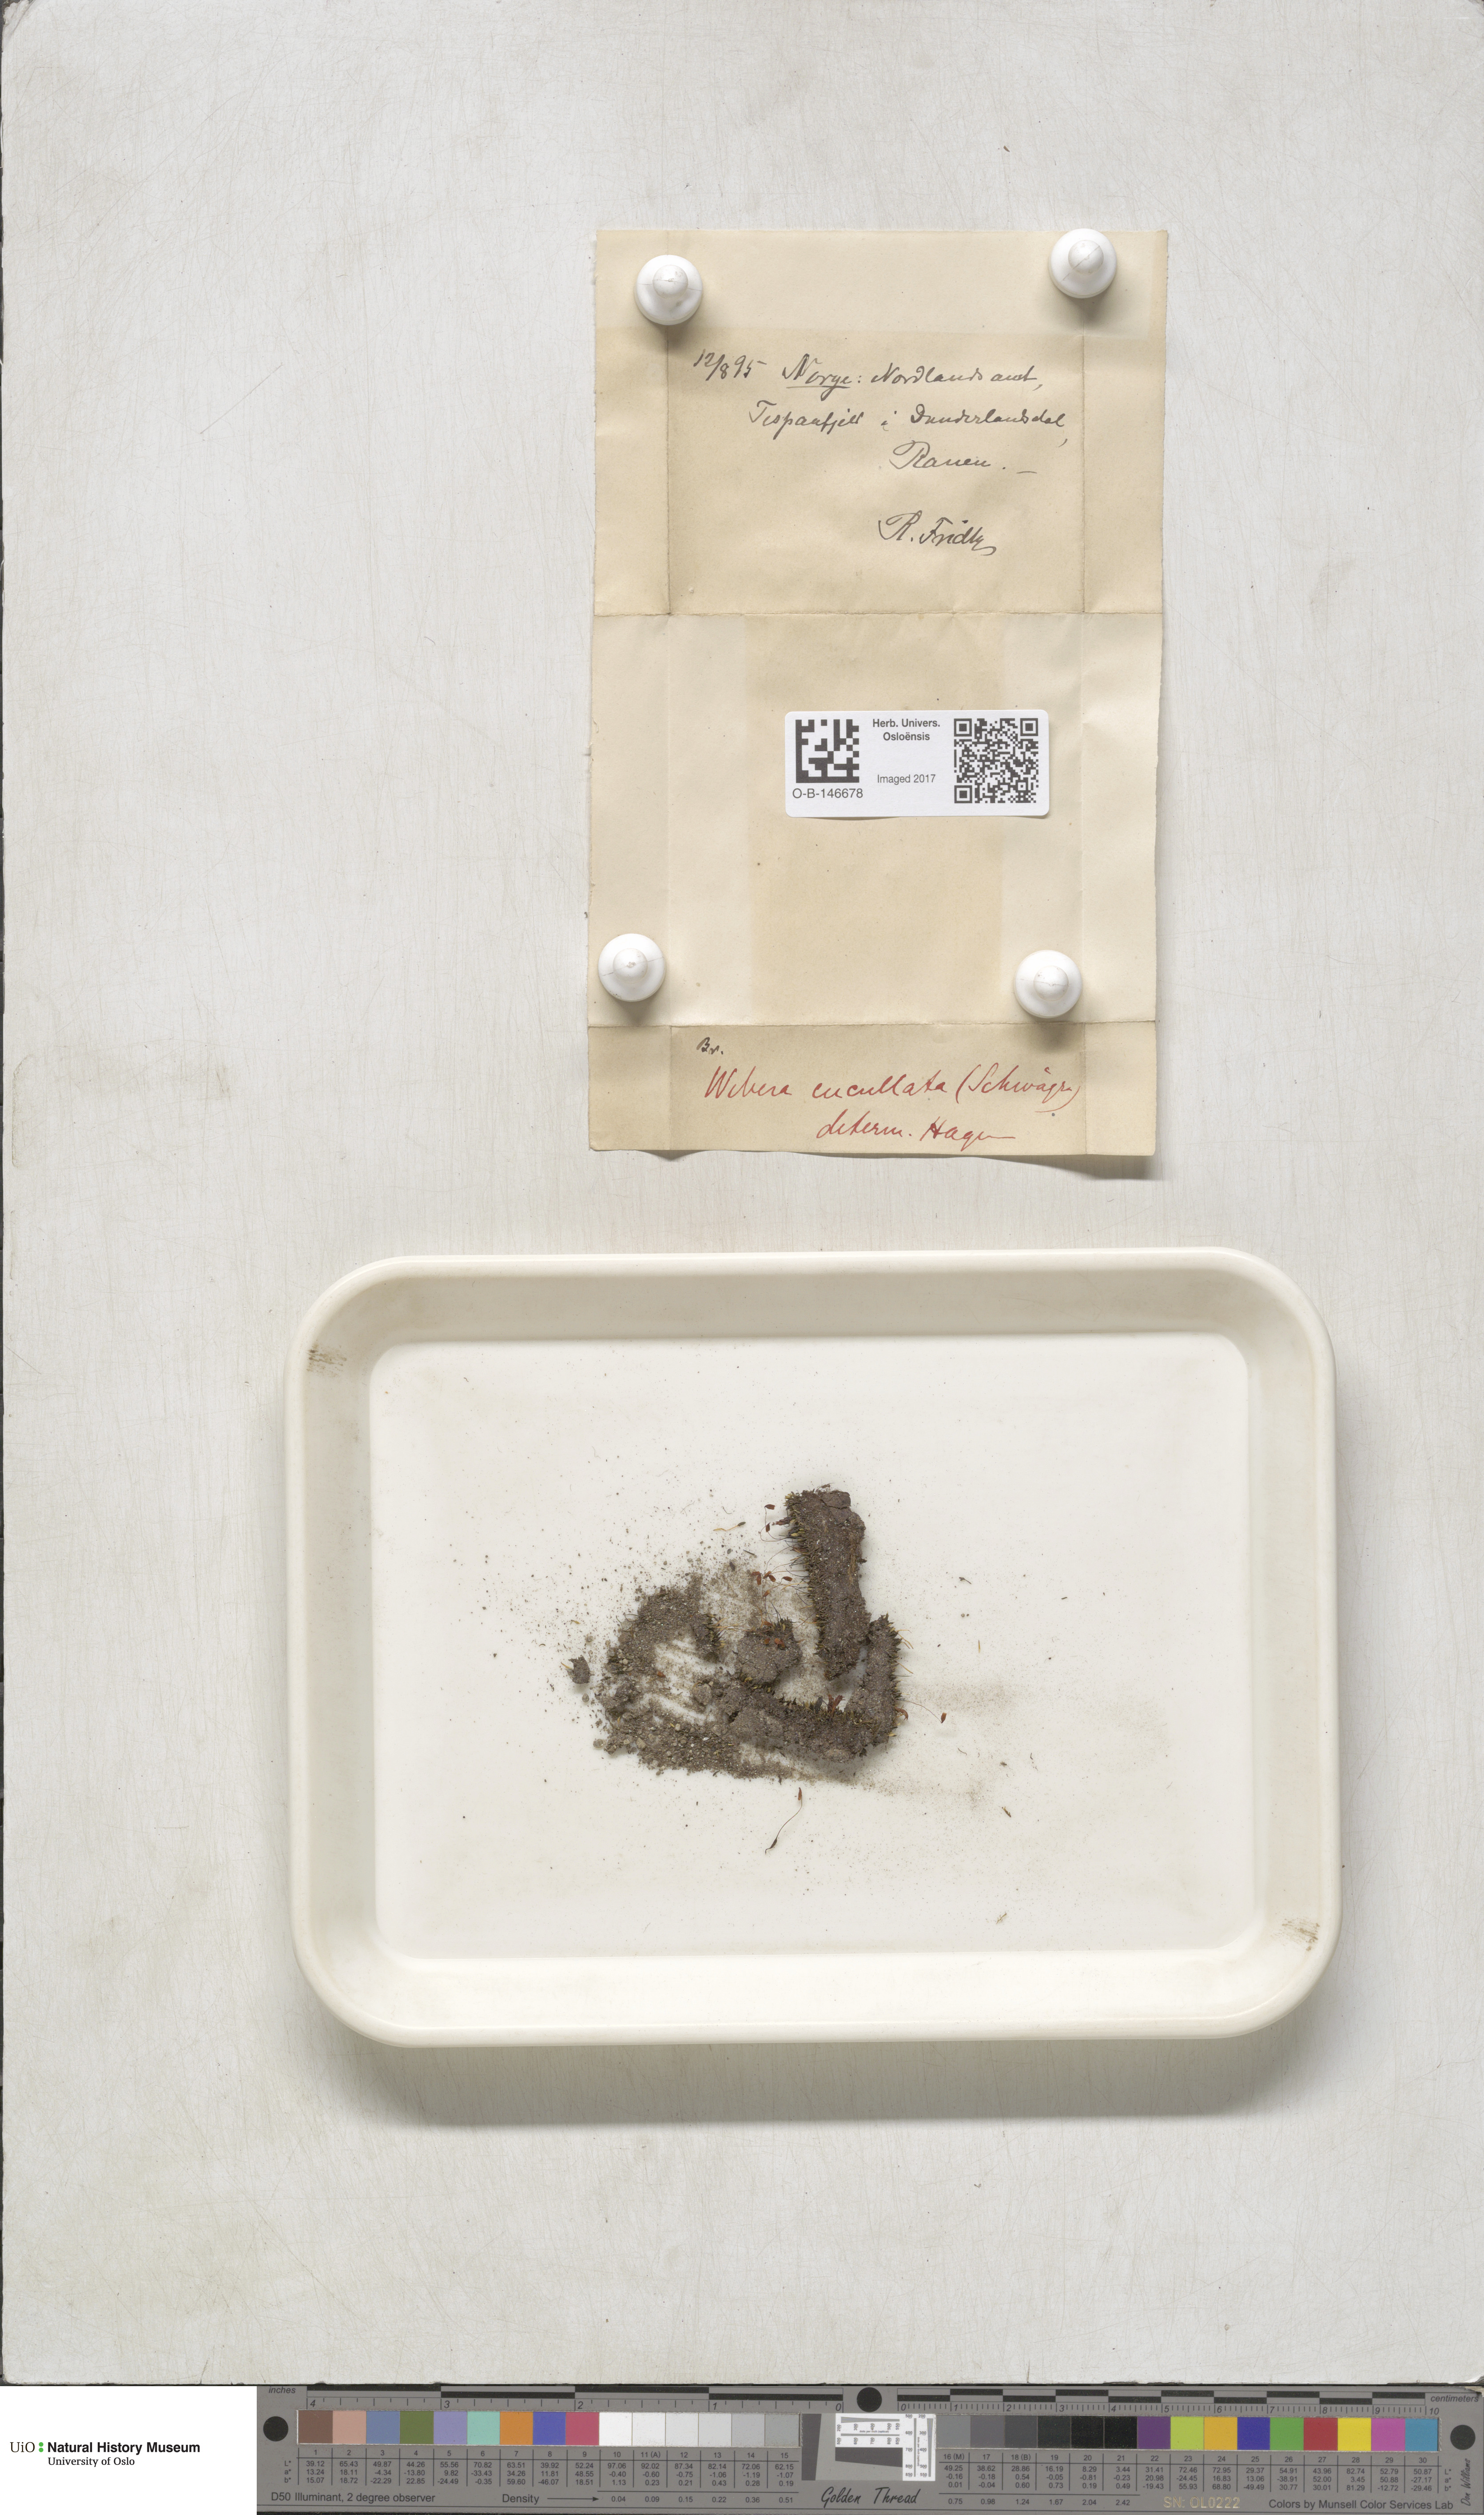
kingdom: Plantae
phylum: Bryophyta
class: Bryopsida
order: Bryales
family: Mniaceae
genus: Pohlia
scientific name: Pohlia obtusifolia
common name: Blunt nodding moss
